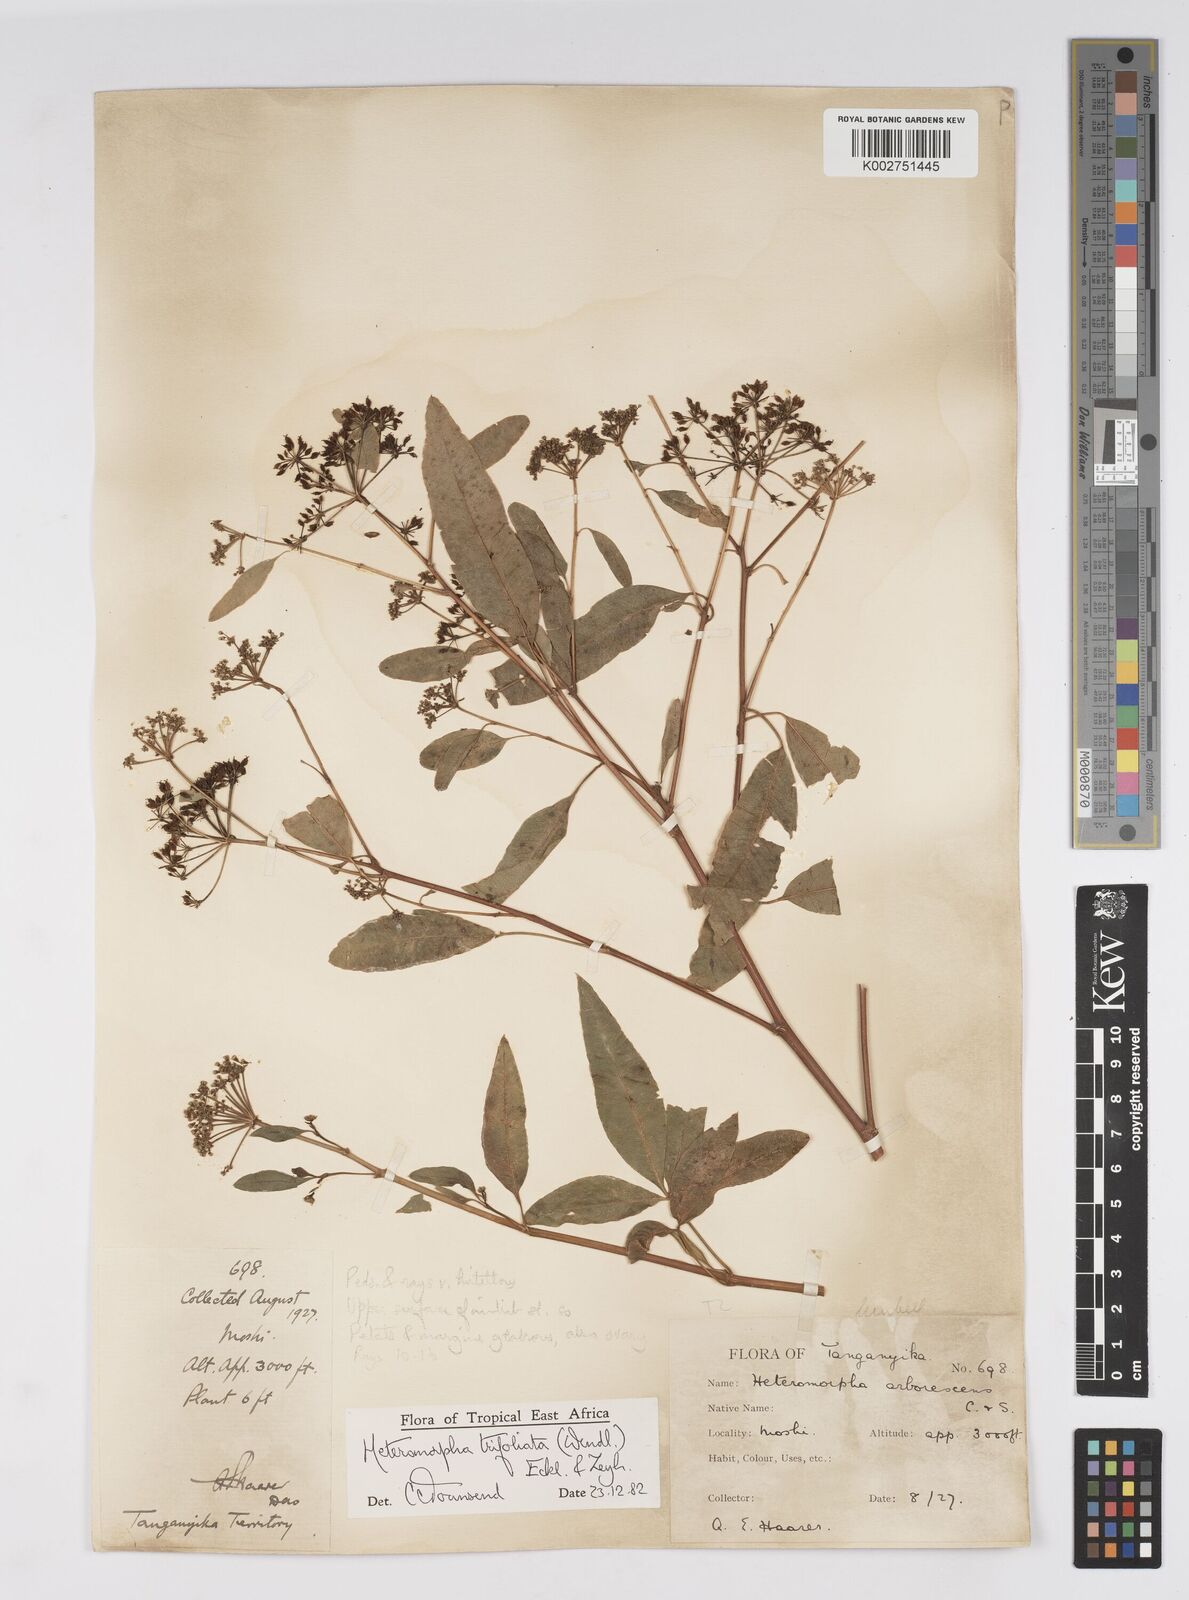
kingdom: Plantae
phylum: Tracheophyta
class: Magnoliopsida
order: Apiales
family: Apiaceae
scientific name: Apiaceae
